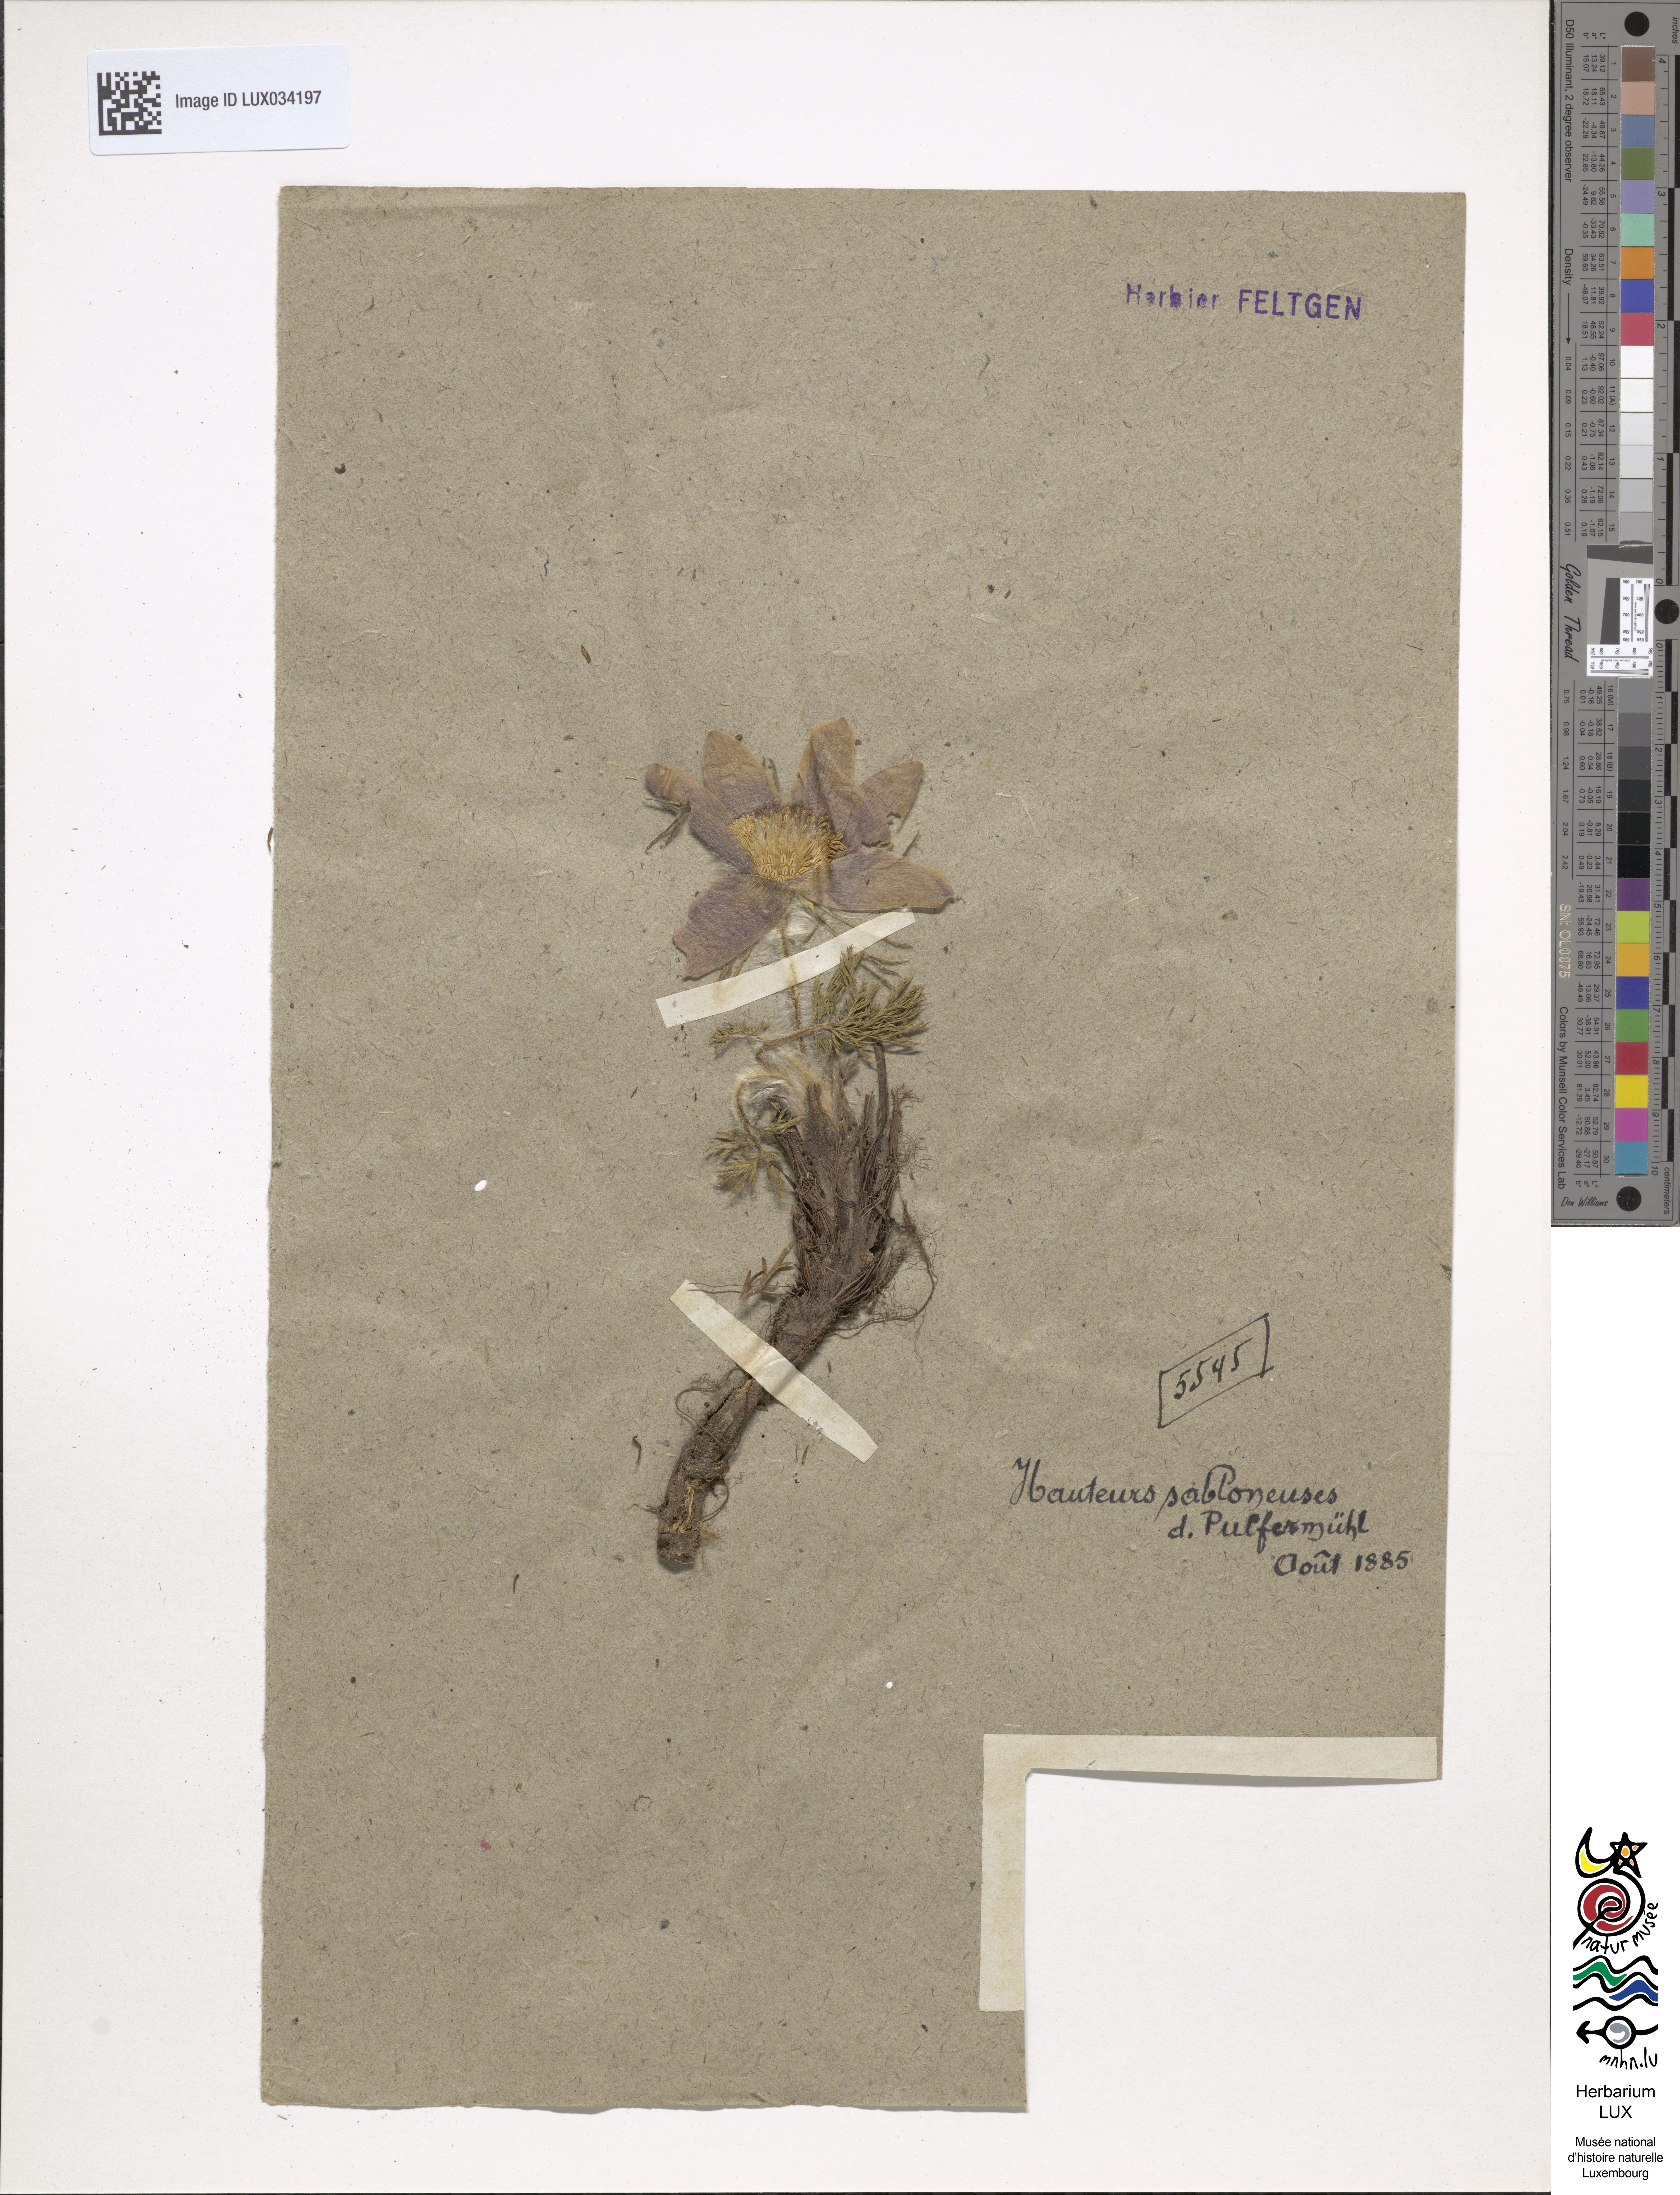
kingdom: Plantae
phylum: Tracheophyta
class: Magnoliopsida
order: Ranunculales
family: Ranunculaceae
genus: Pulsatilla
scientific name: Pulsatilla vulgaris
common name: Pasqueflower
